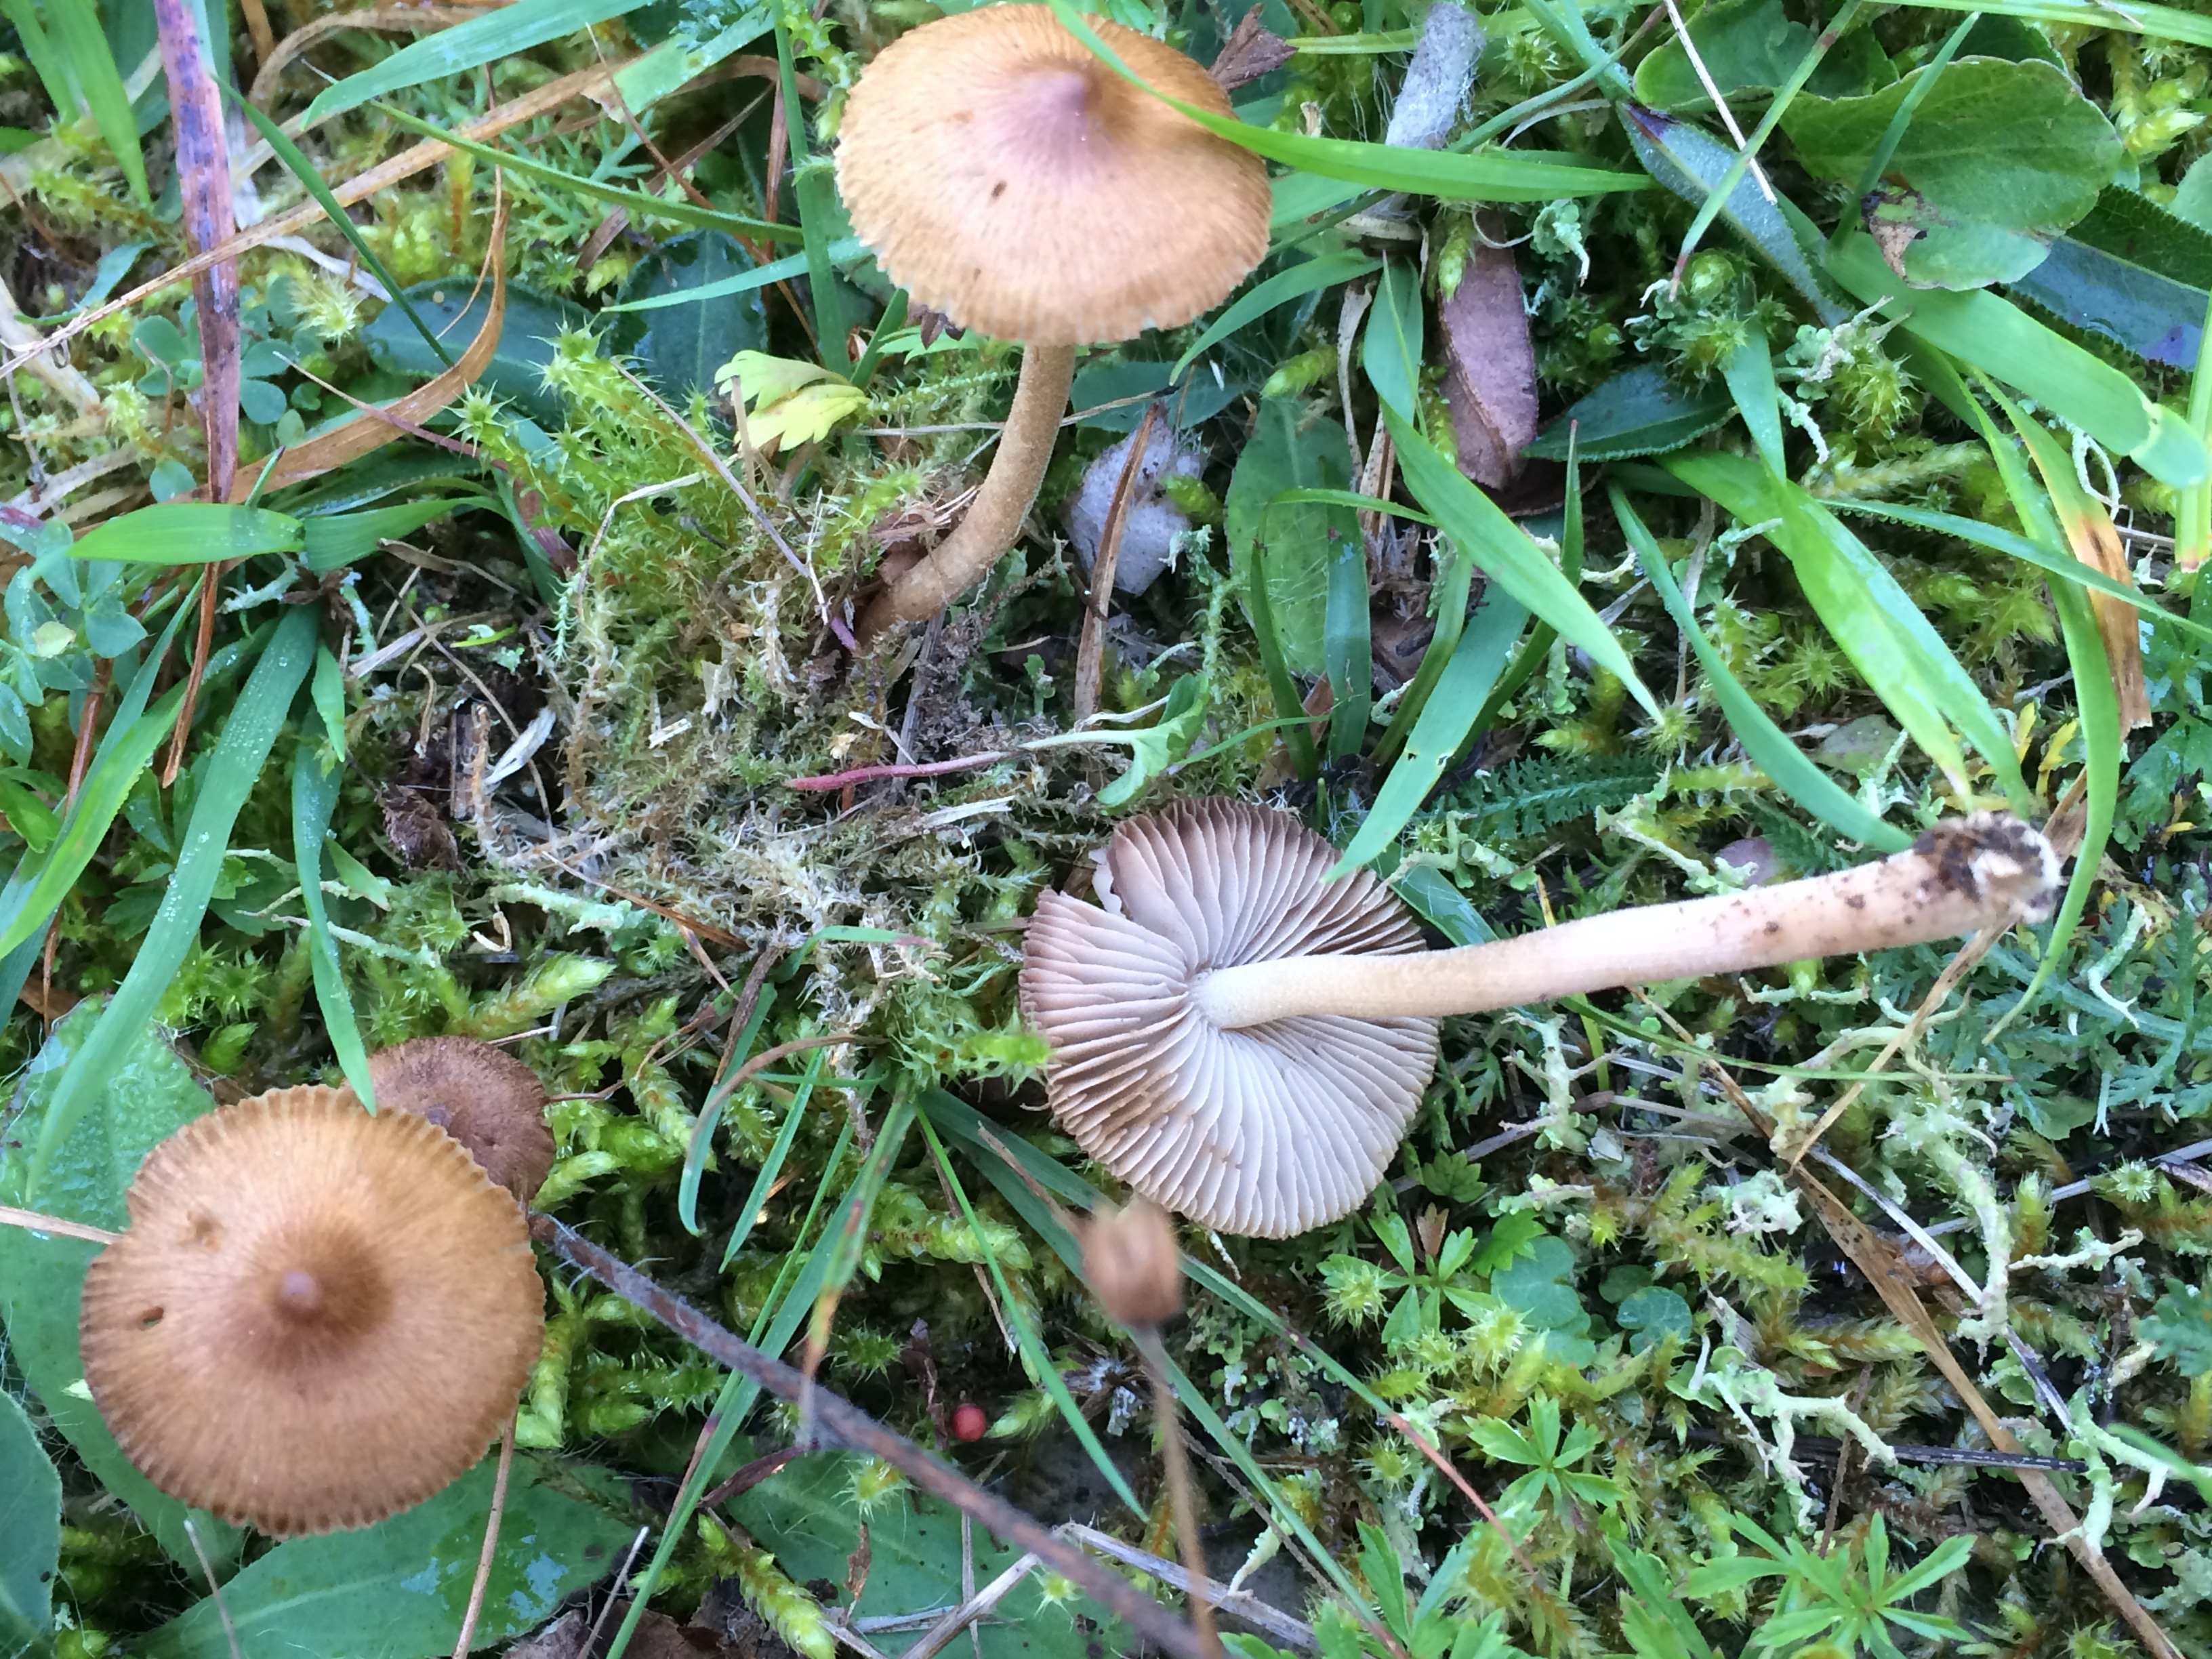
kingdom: Fungi
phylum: Basidiomycota
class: Agaricomycetes
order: Agaricales
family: Inocybaceae
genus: Inocybe
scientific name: Inocybe mixtilis
